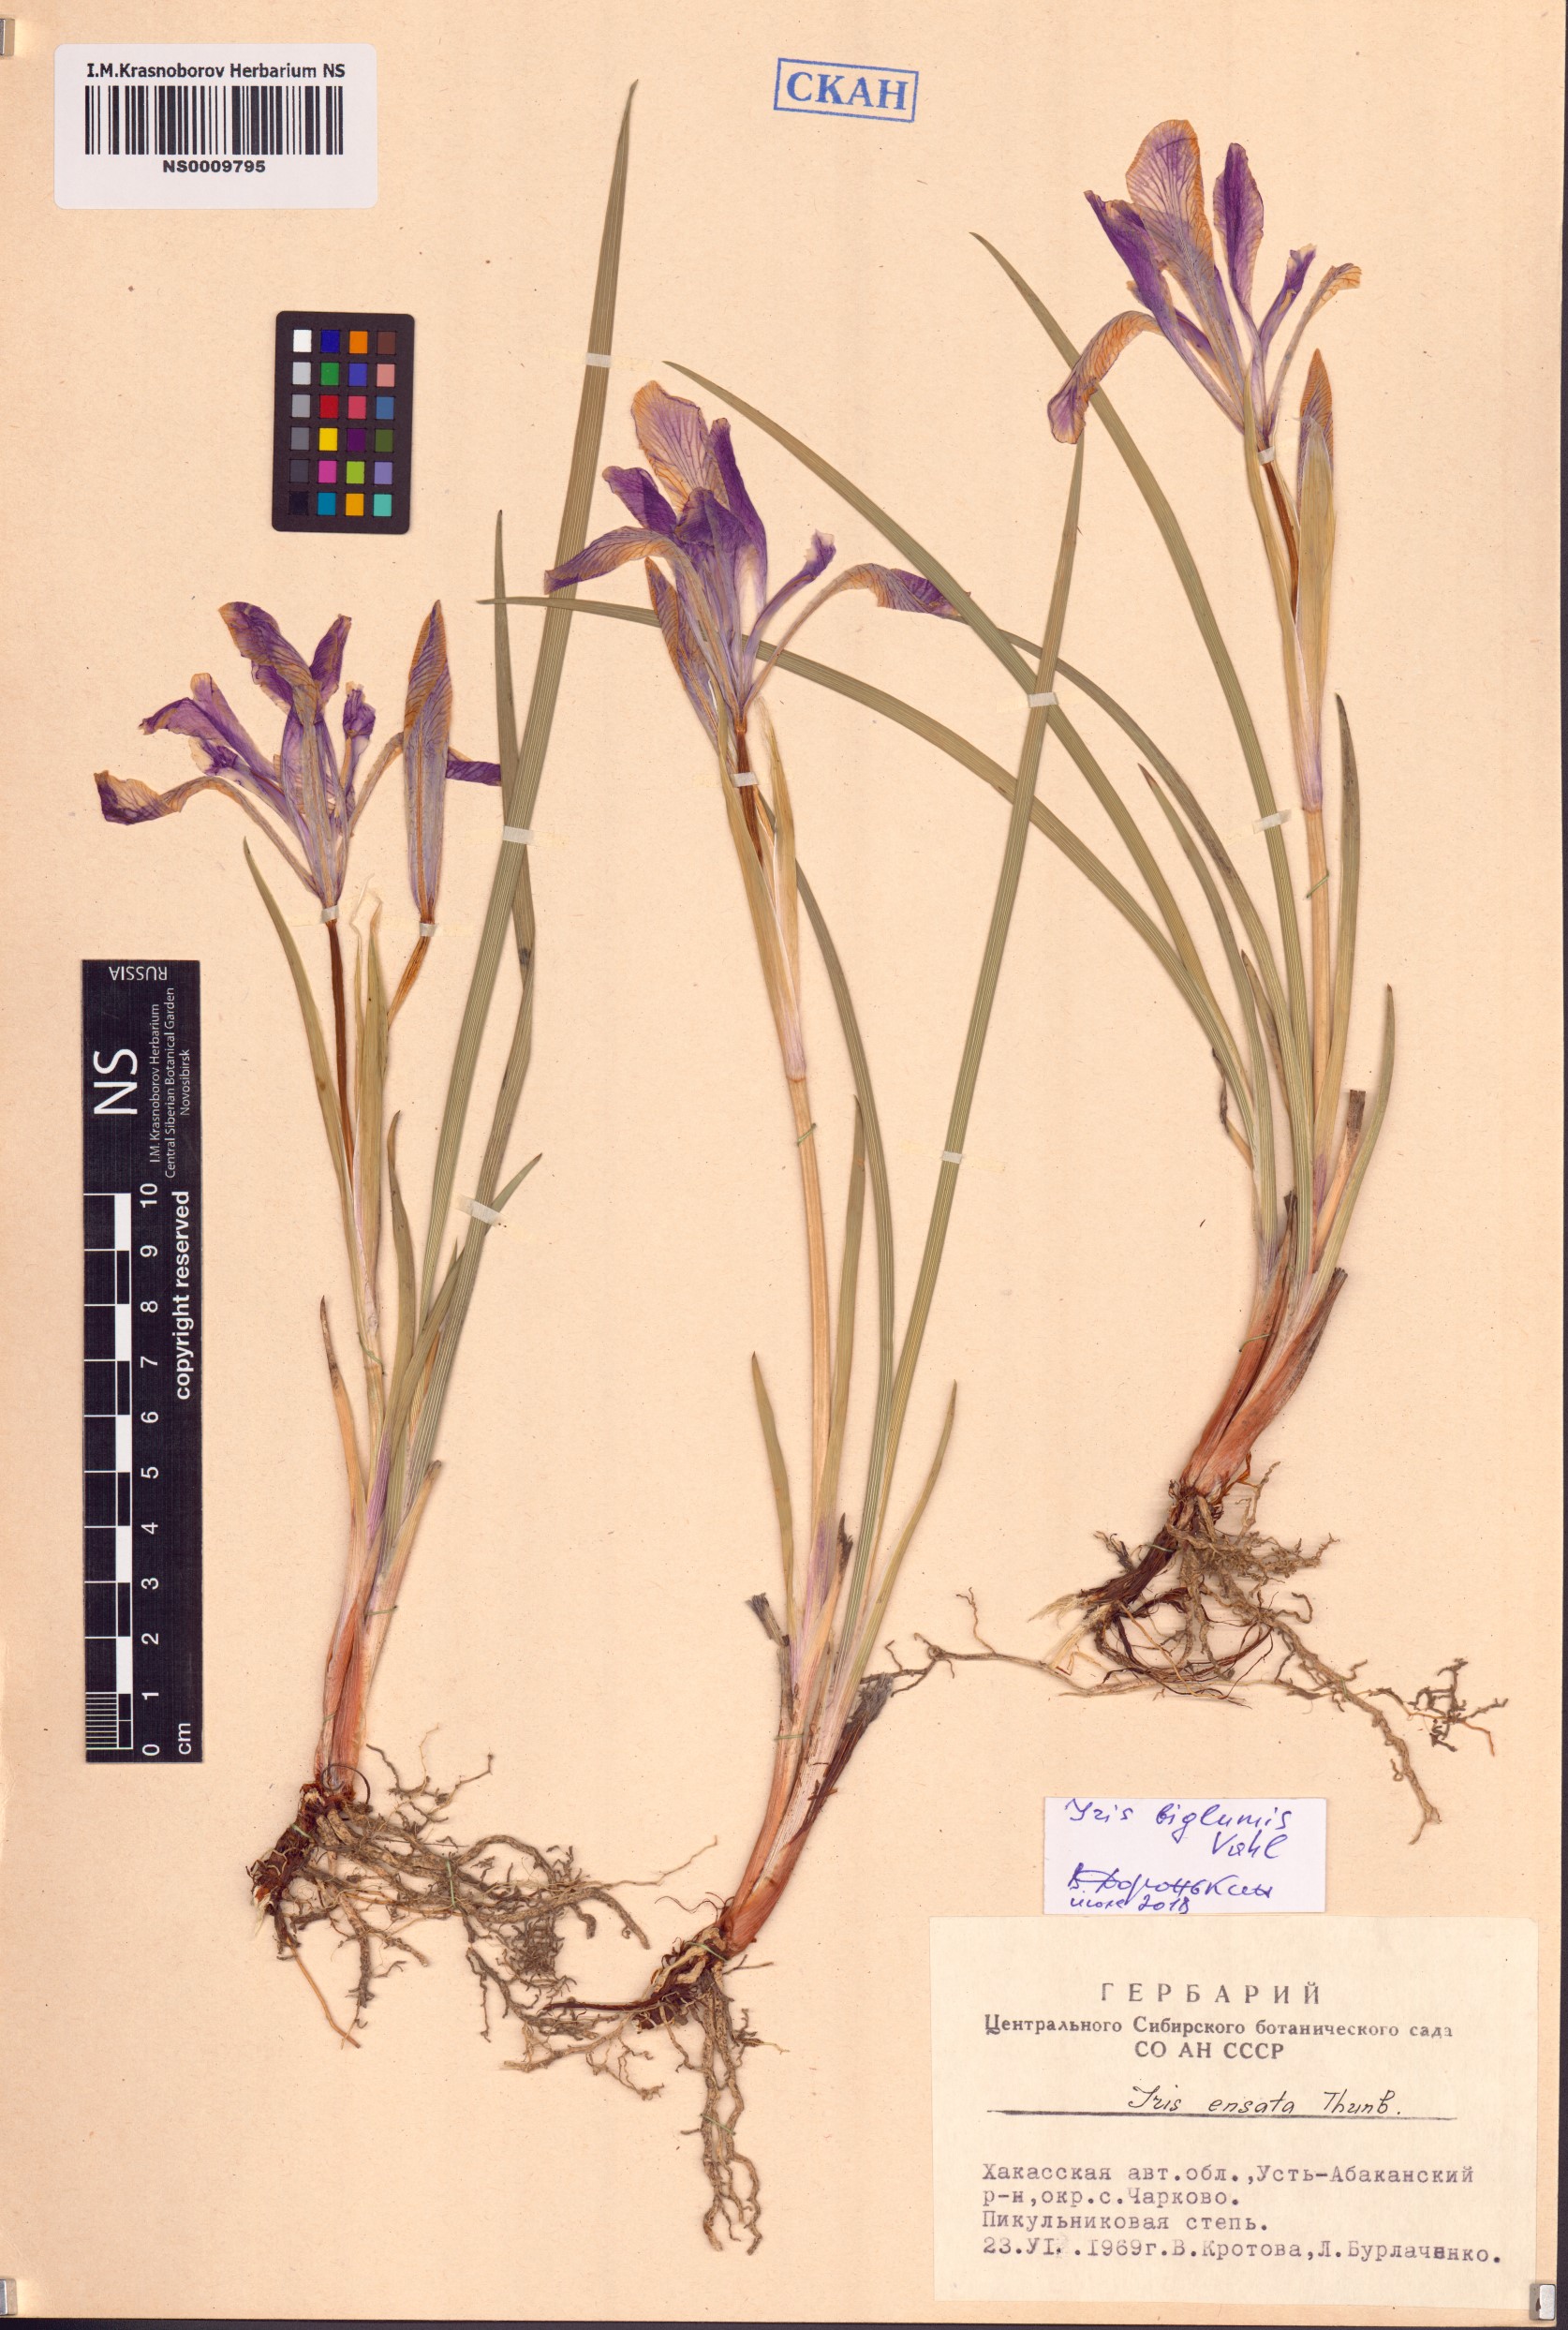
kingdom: Plantae
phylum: Tracheophyta
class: Liliopsida
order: Asparagales
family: Iridaceae
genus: Iris
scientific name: Iris lactea
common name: White-flower chinese iris
